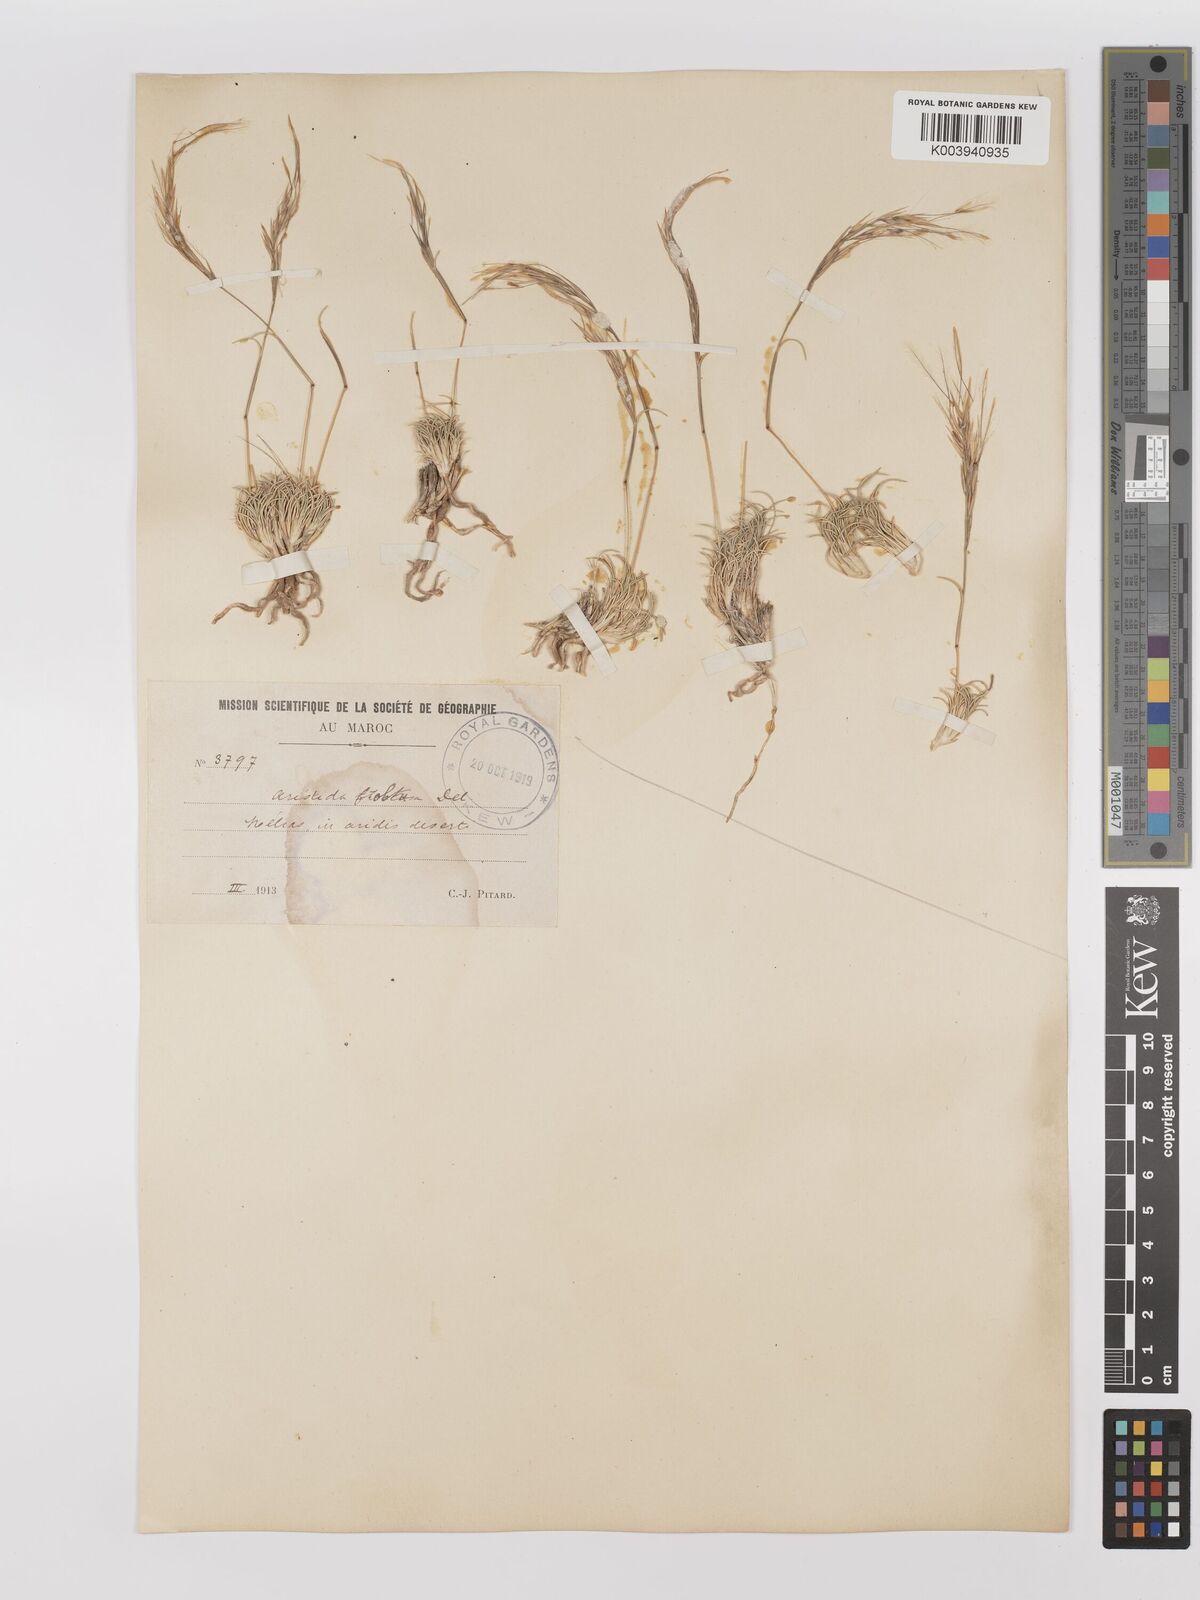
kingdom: Plantae
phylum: Tracheophyta
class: Liliopsida
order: Poales
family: Poaceae
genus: Stipagrostis
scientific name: Stipagrostis obtusa
